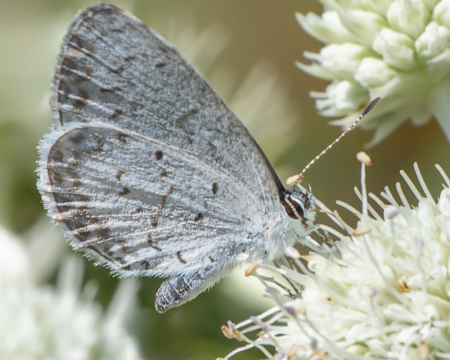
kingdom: Animalia
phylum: Arthropoda
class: Insecta
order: Lepidoptera
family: Lycaenidae
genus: Cyaniris
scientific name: Cyaniris neglecta
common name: Summer Azure
